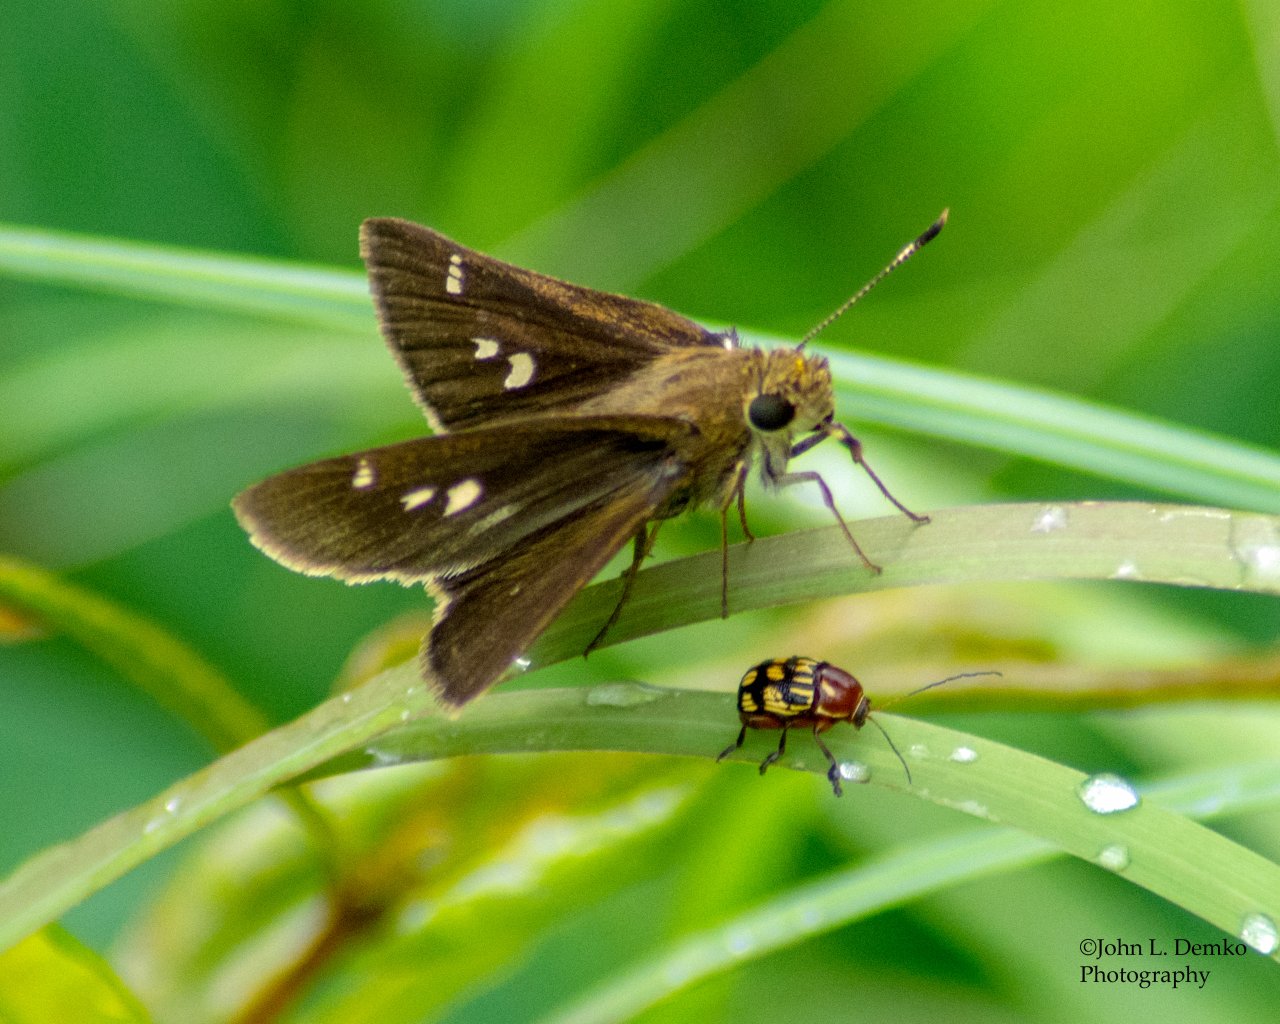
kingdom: Animalia
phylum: Arthropoda
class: Insecta
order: Lepidoptera
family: Hesperiidae
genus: Oligoria
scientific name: Oligoria maculata
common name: Twin-spot Skipper
